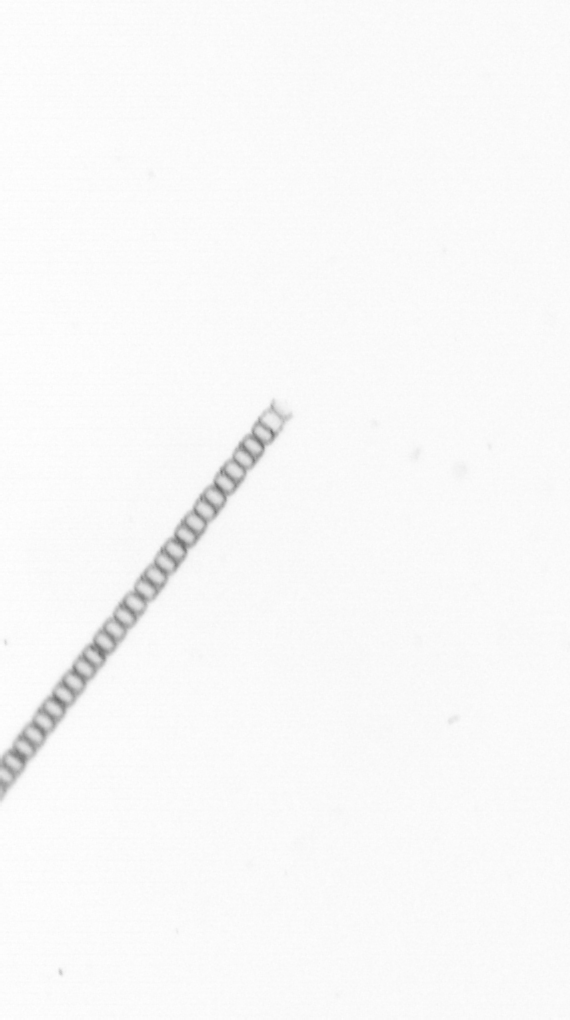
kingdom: Chromista
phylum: Ochrophyta
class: Bacillariophyceae
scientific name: Bacillariophyceae
